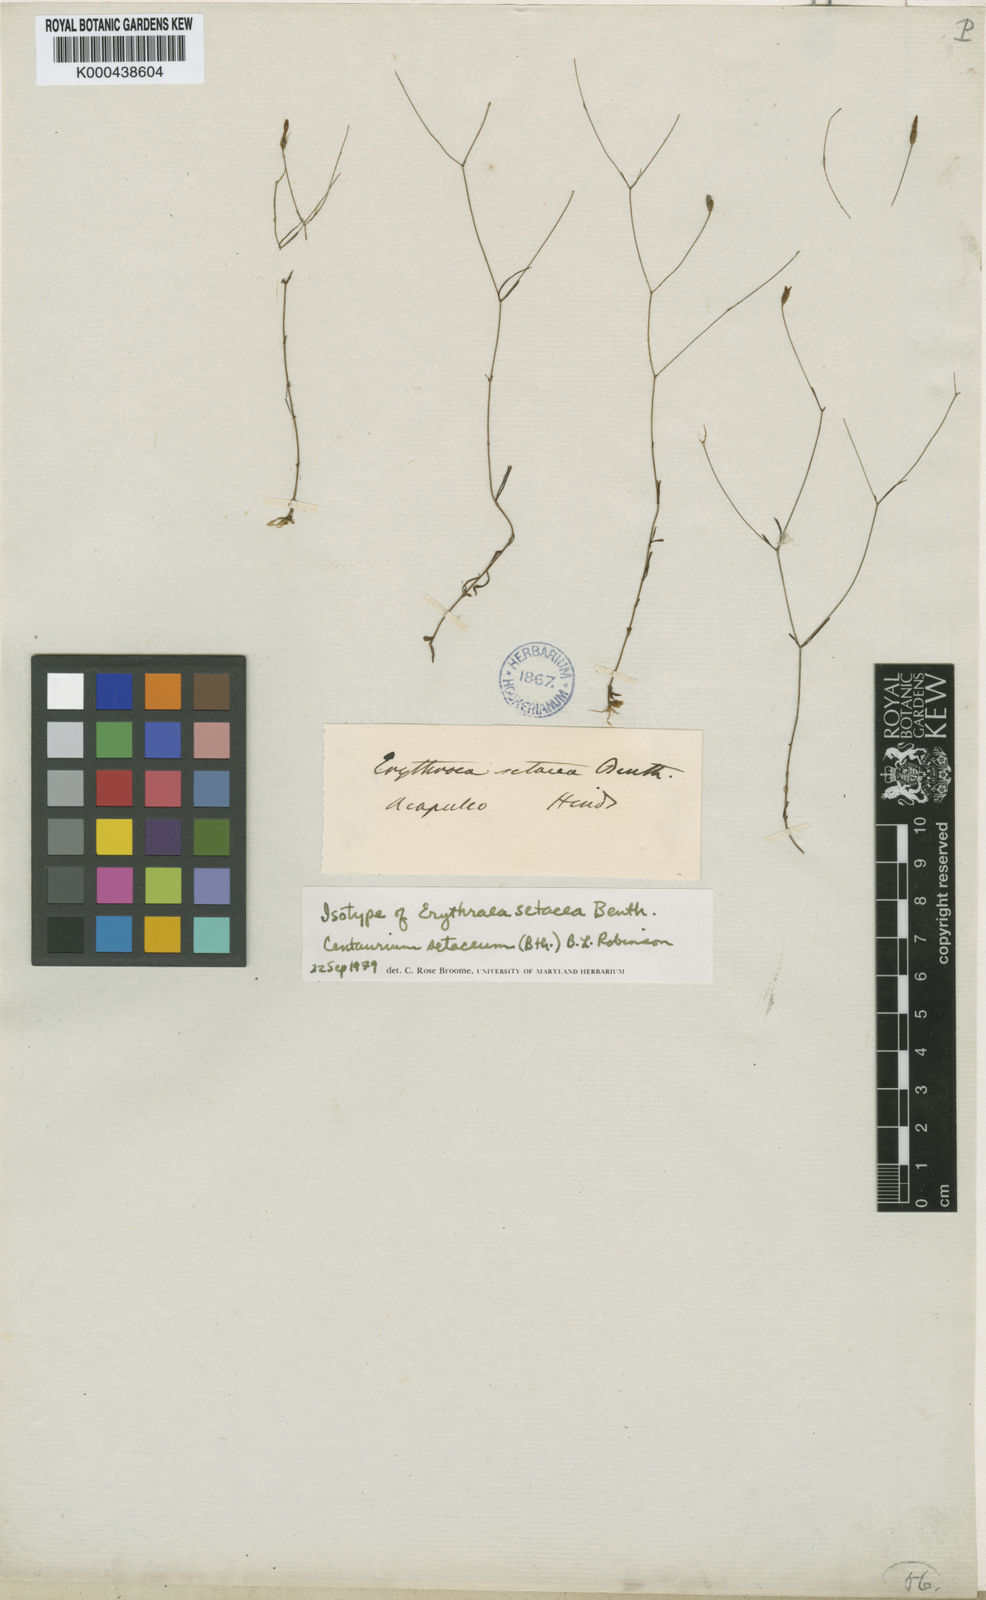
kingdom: Plantae
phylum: Tracheophyta
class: Magnoliopsida
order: Gentianales
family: Gentianaceae
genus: Zeltnera
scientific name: Zeltnera setacea
